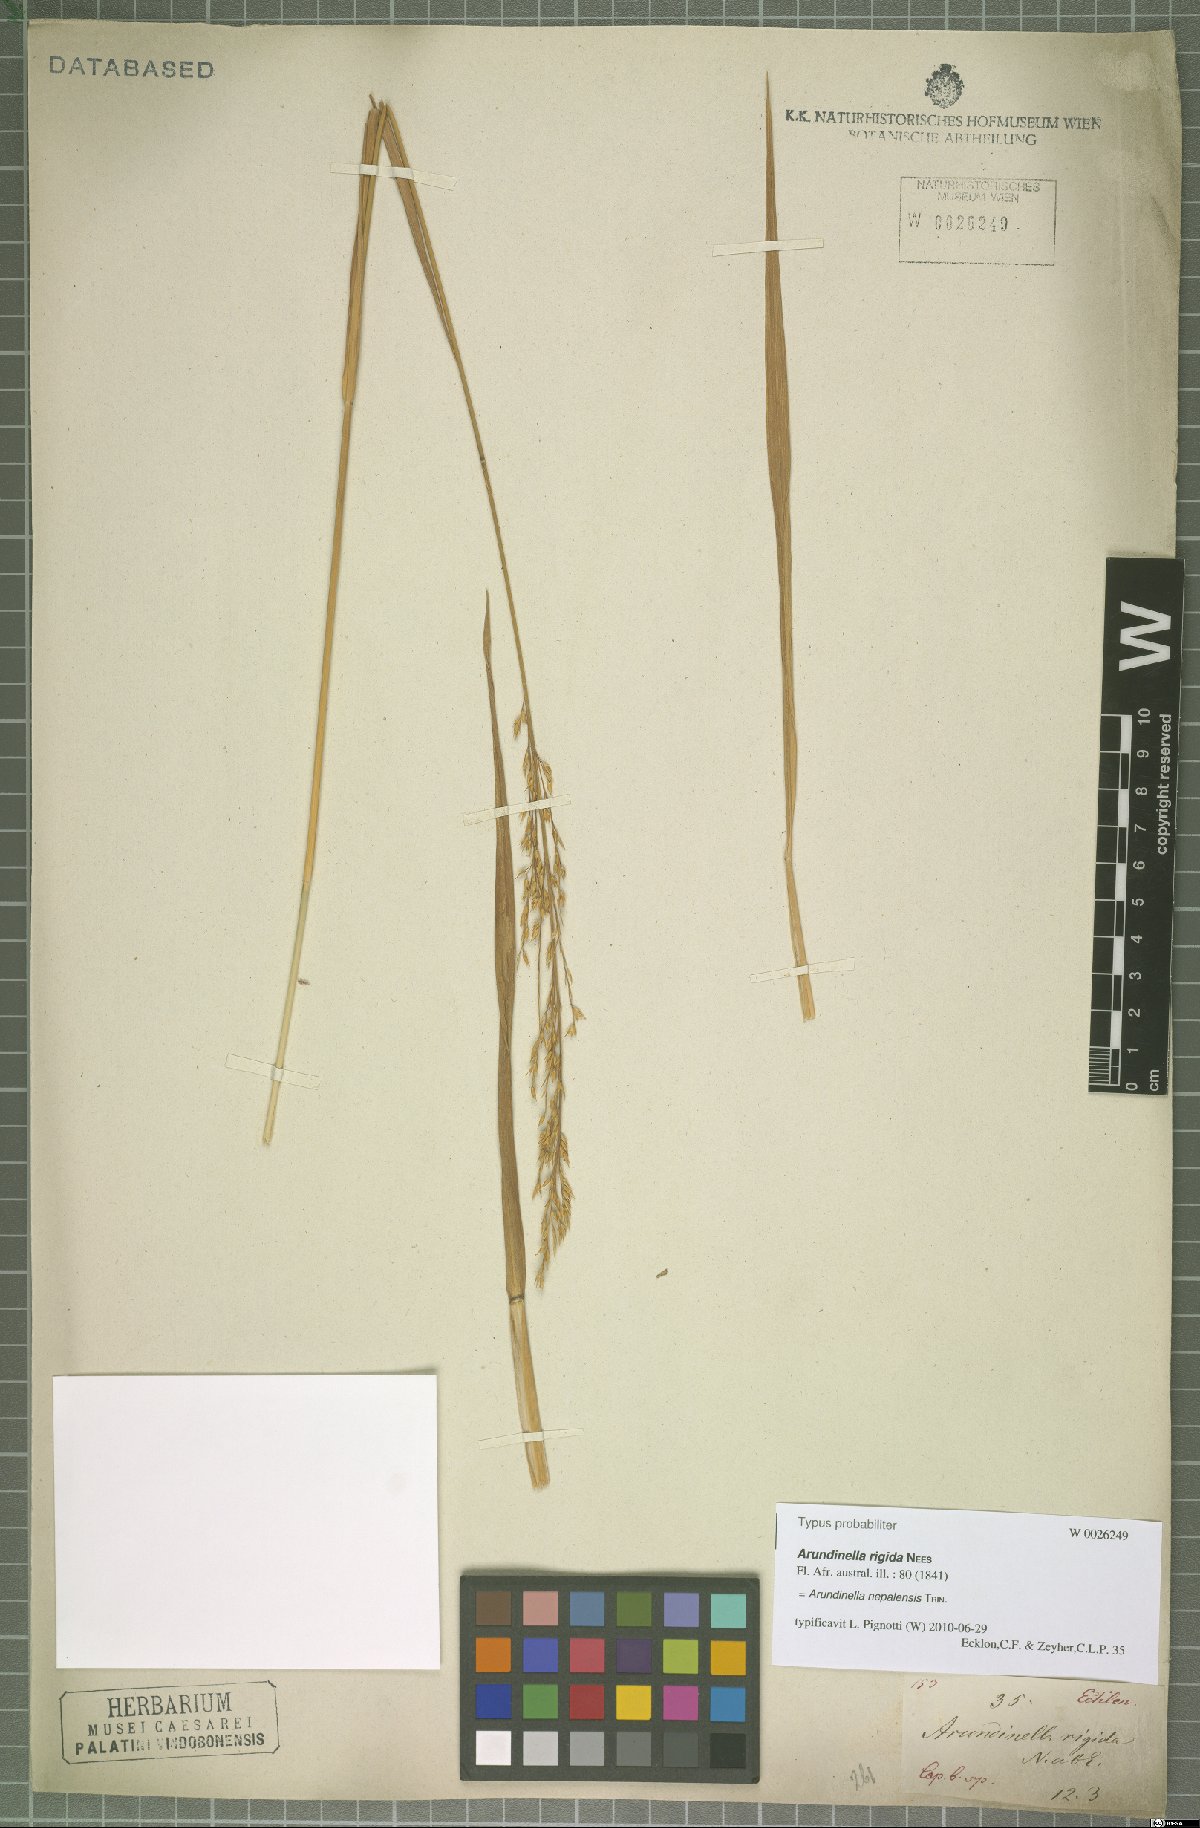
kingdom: Plantae
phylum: Tracheophyta
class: Liliopsida
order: Poales
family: Poaceae
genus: Arundinella
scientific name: Arundinella nepalensis
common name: Reed grass
